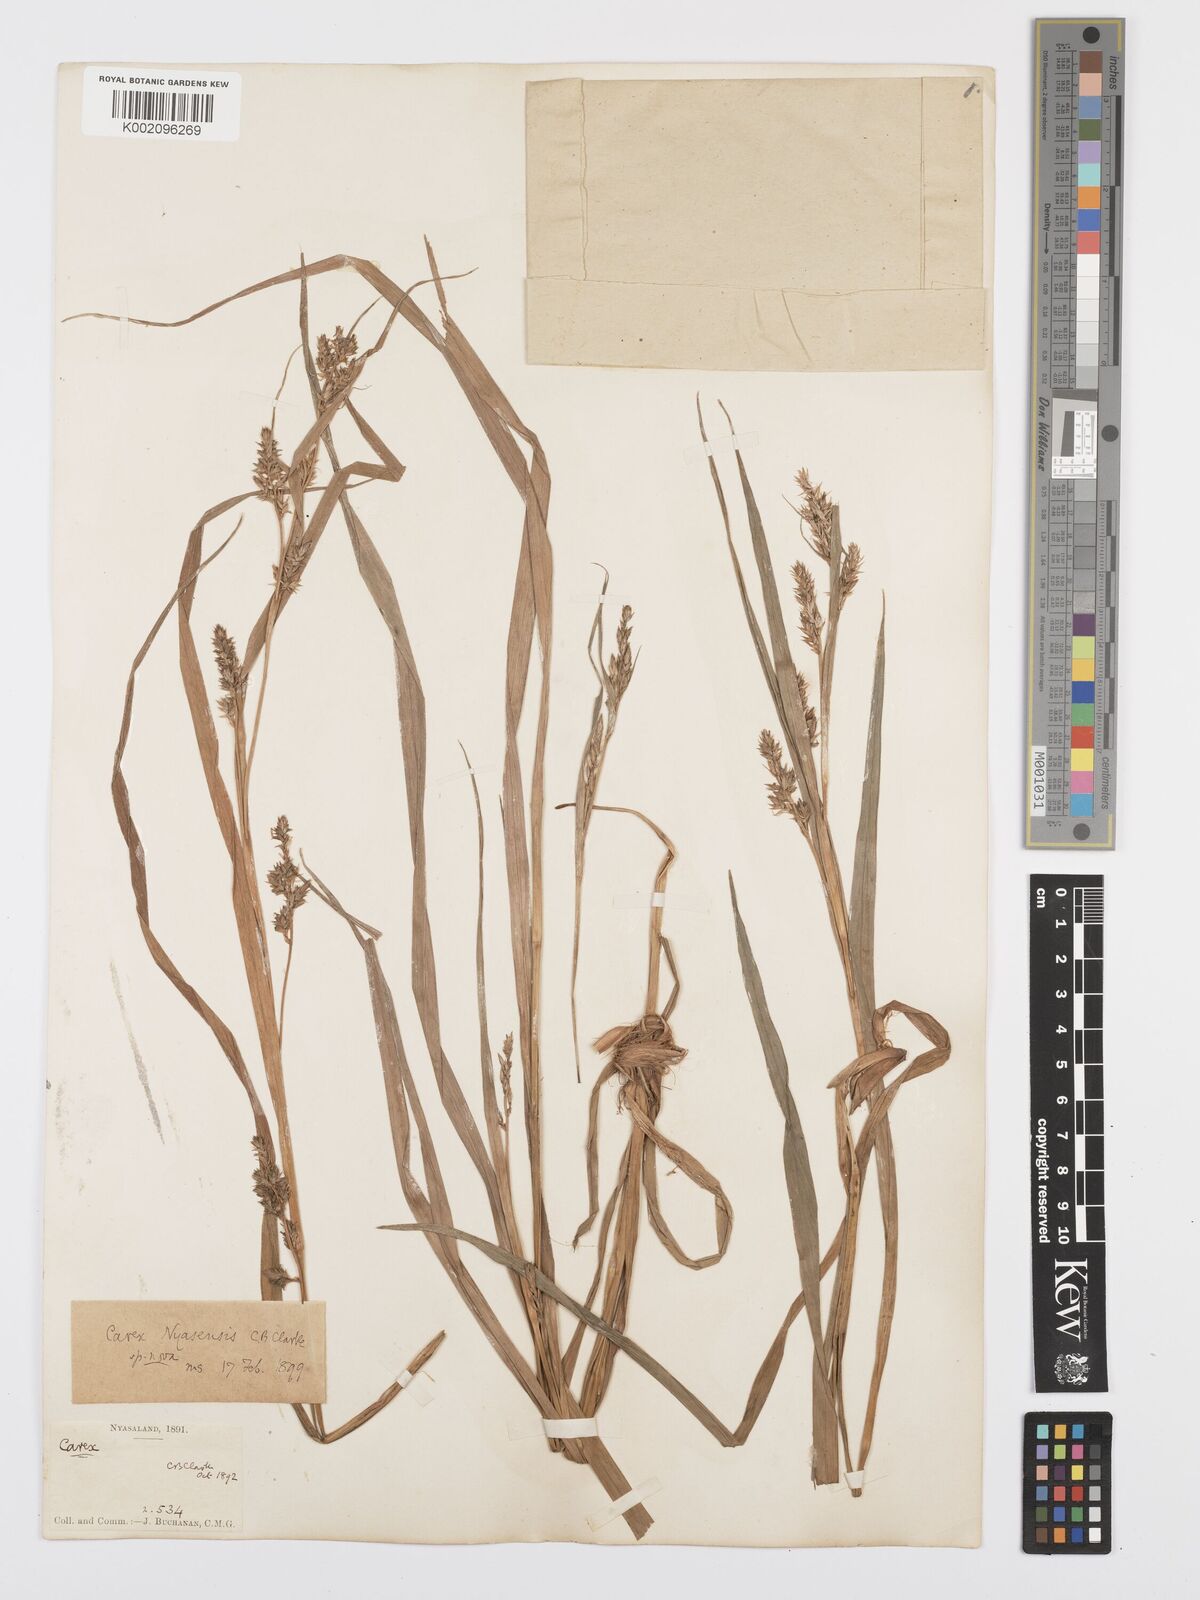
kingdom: Plantae
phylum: Tracheophyta
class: Liliopsida
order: Poales
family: Cyperaceae
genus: Carex
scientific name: Carex spicatopaniculata
